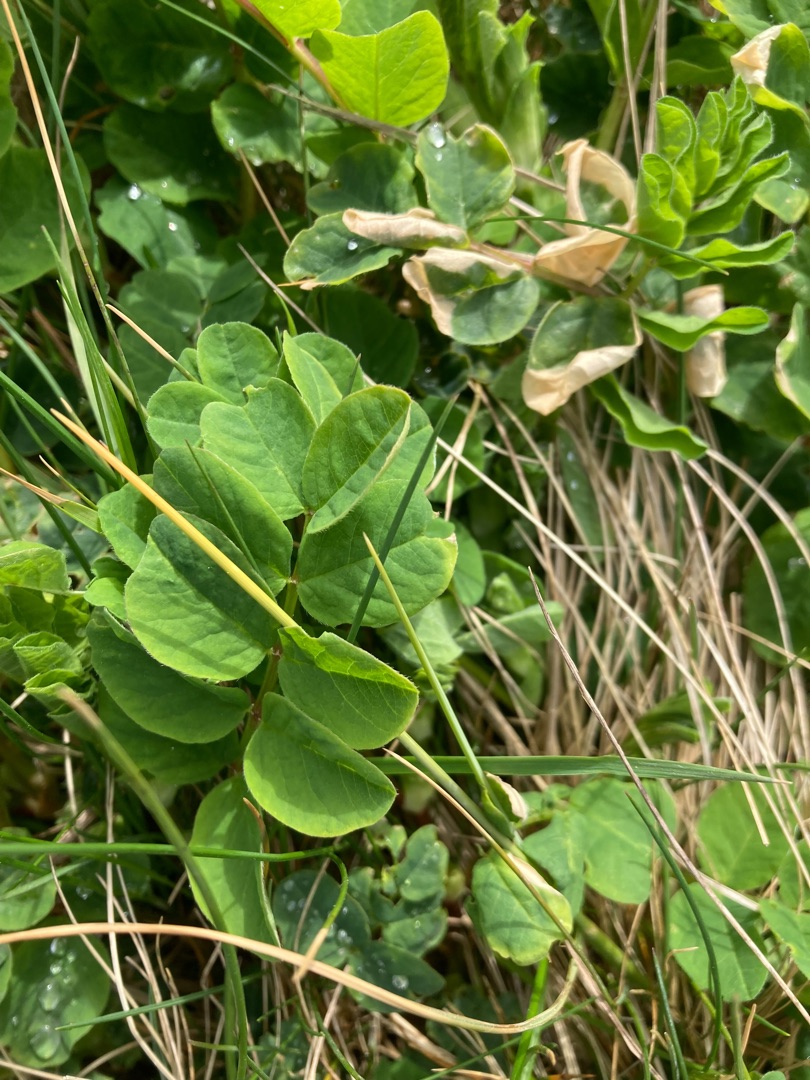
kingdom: Plantae
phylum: Tracheophyta
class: Magnoliopsida
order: Fabales
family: Fabaceae
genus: Astragalus
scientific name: Astragalus glycyphyllos
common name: Sød astragel
